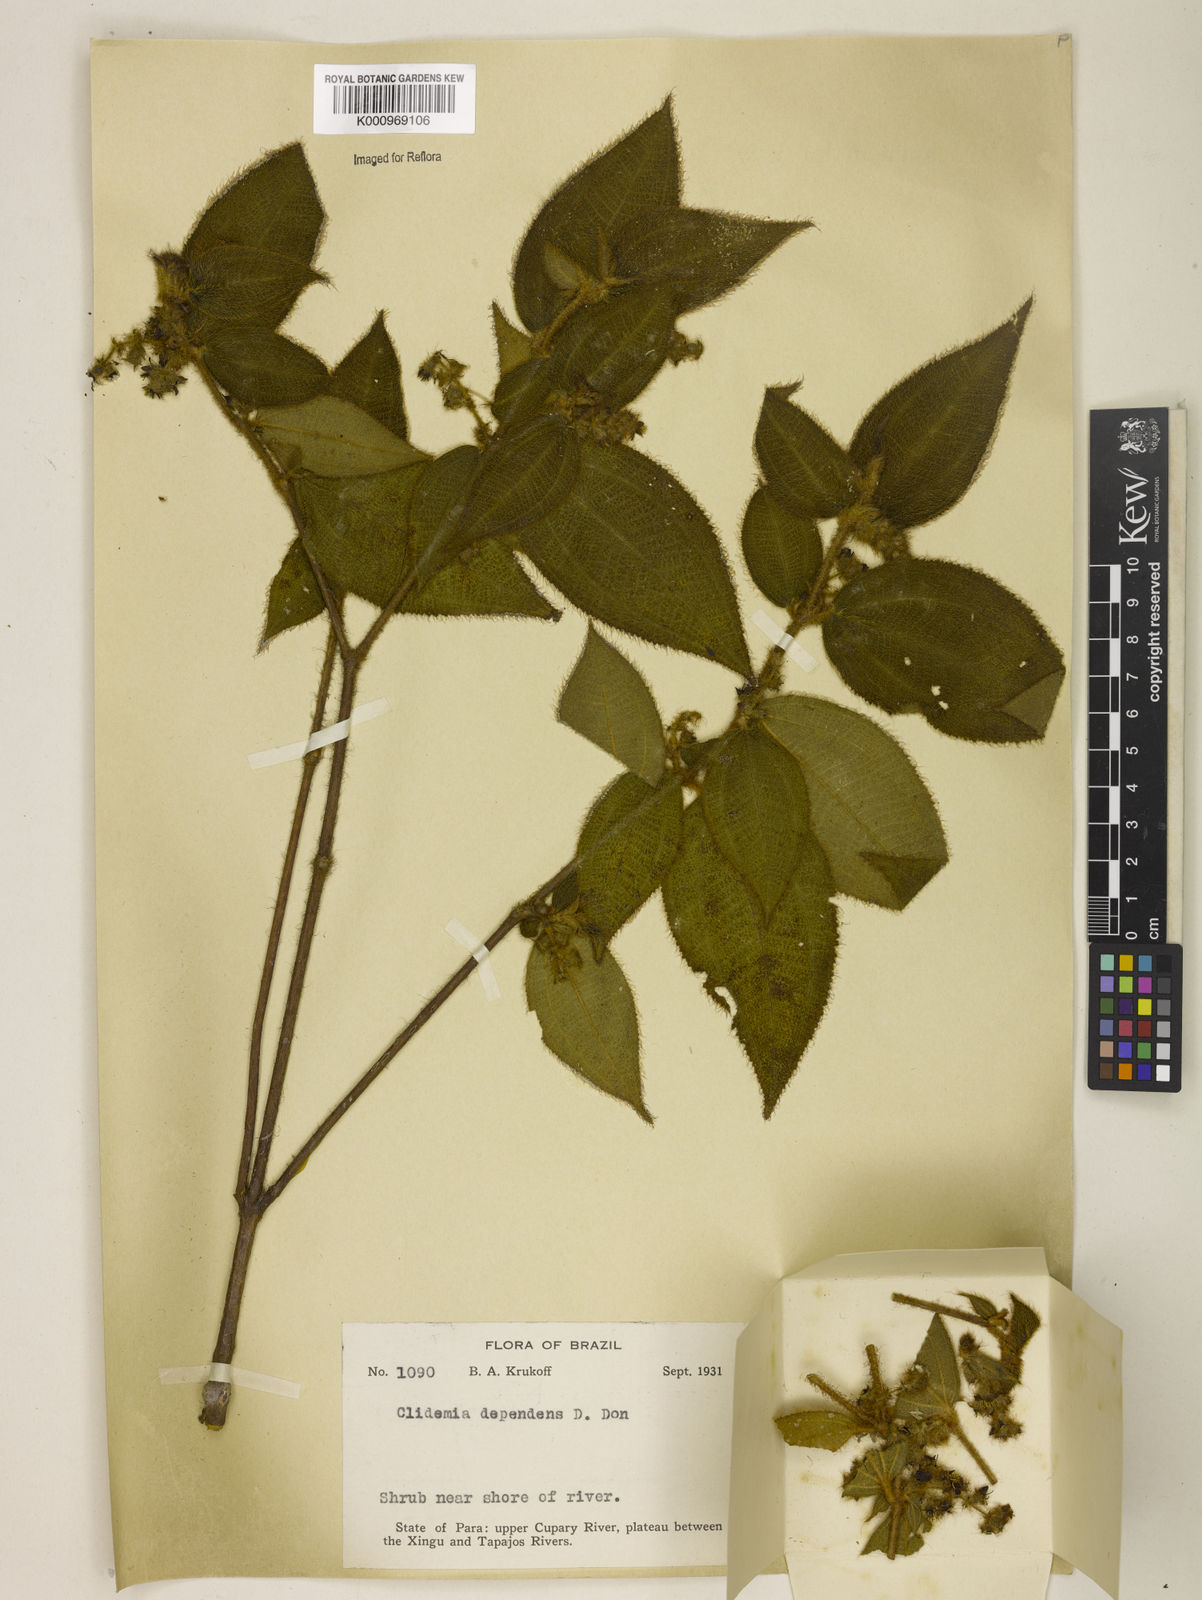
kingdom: Plantae
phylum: Tracheophyta
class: Magnoliopsida
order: Myrtales
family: Melastomataceae
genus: Miconia
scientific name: Miconia dependens
